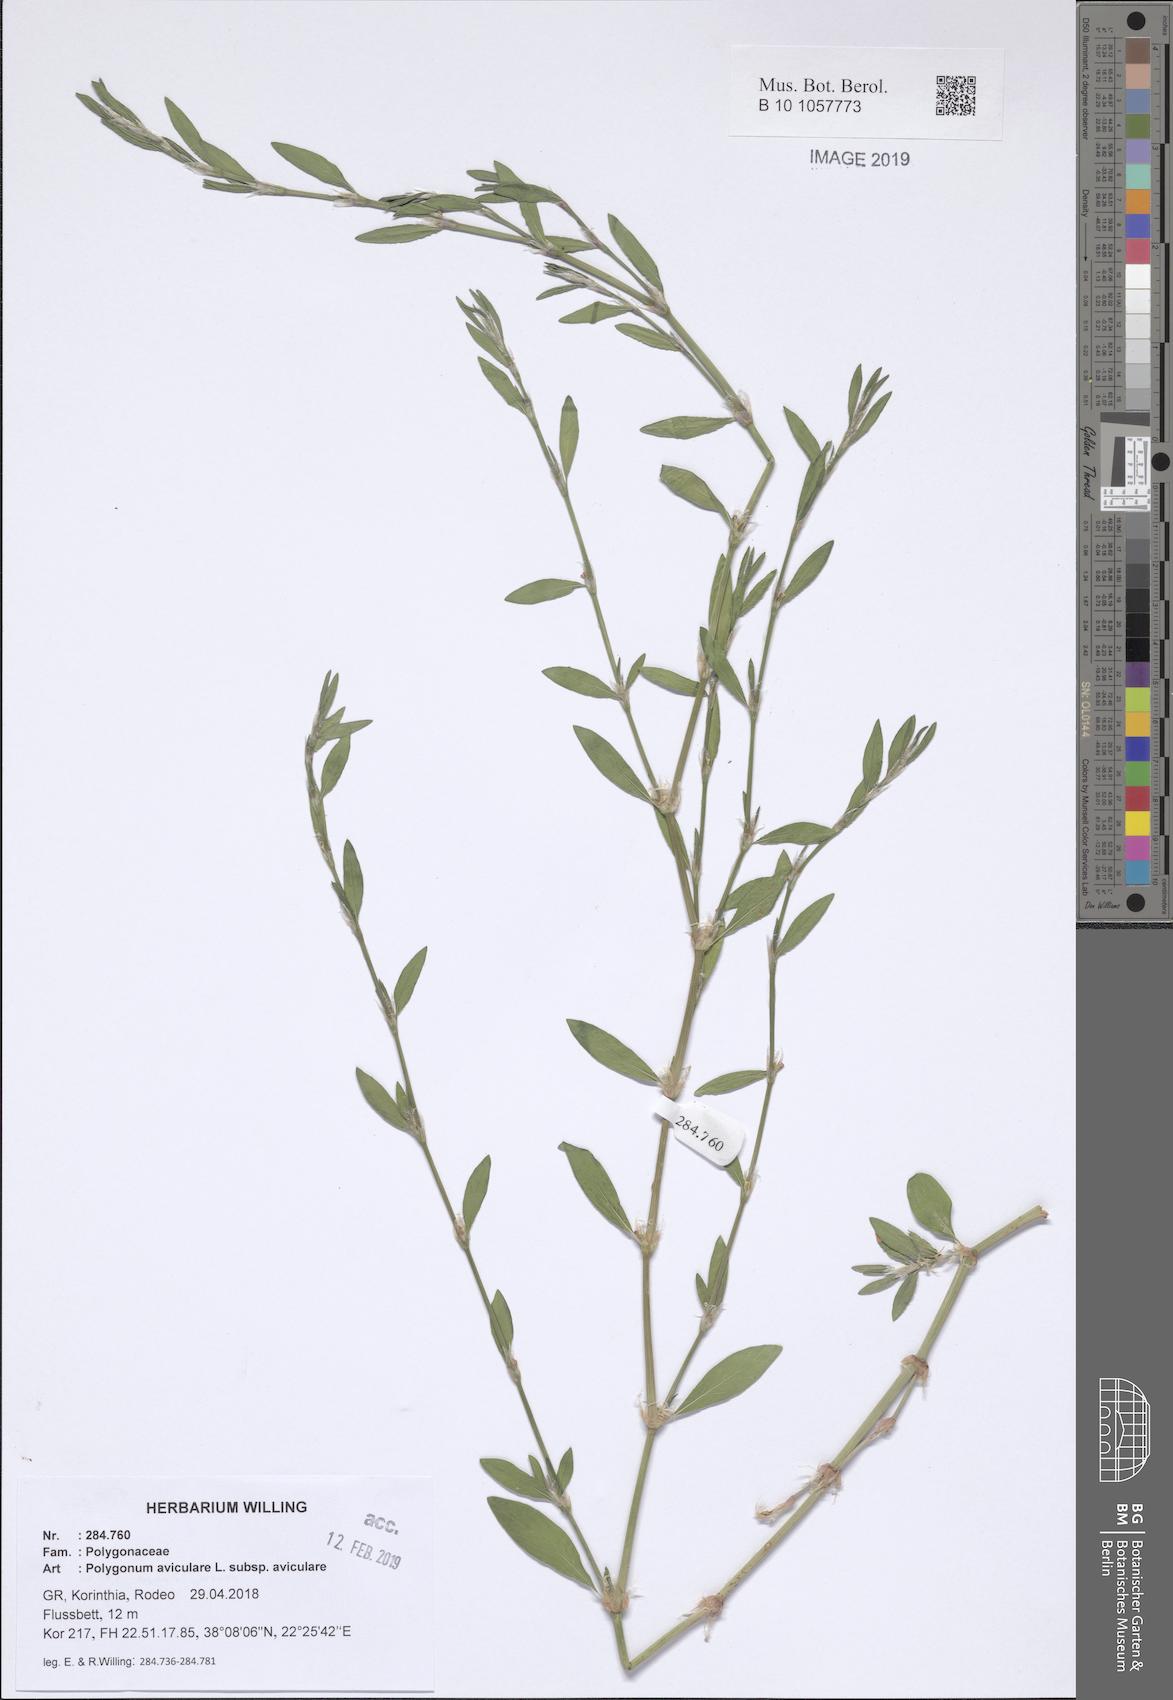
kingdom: Plantae
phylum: Tracheophyta
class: Magnoliopsida
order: Caryophyllales
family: Polygonaceae
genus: Polygonum
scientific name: Polygonum aviculare
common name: Prostrate knotweed
